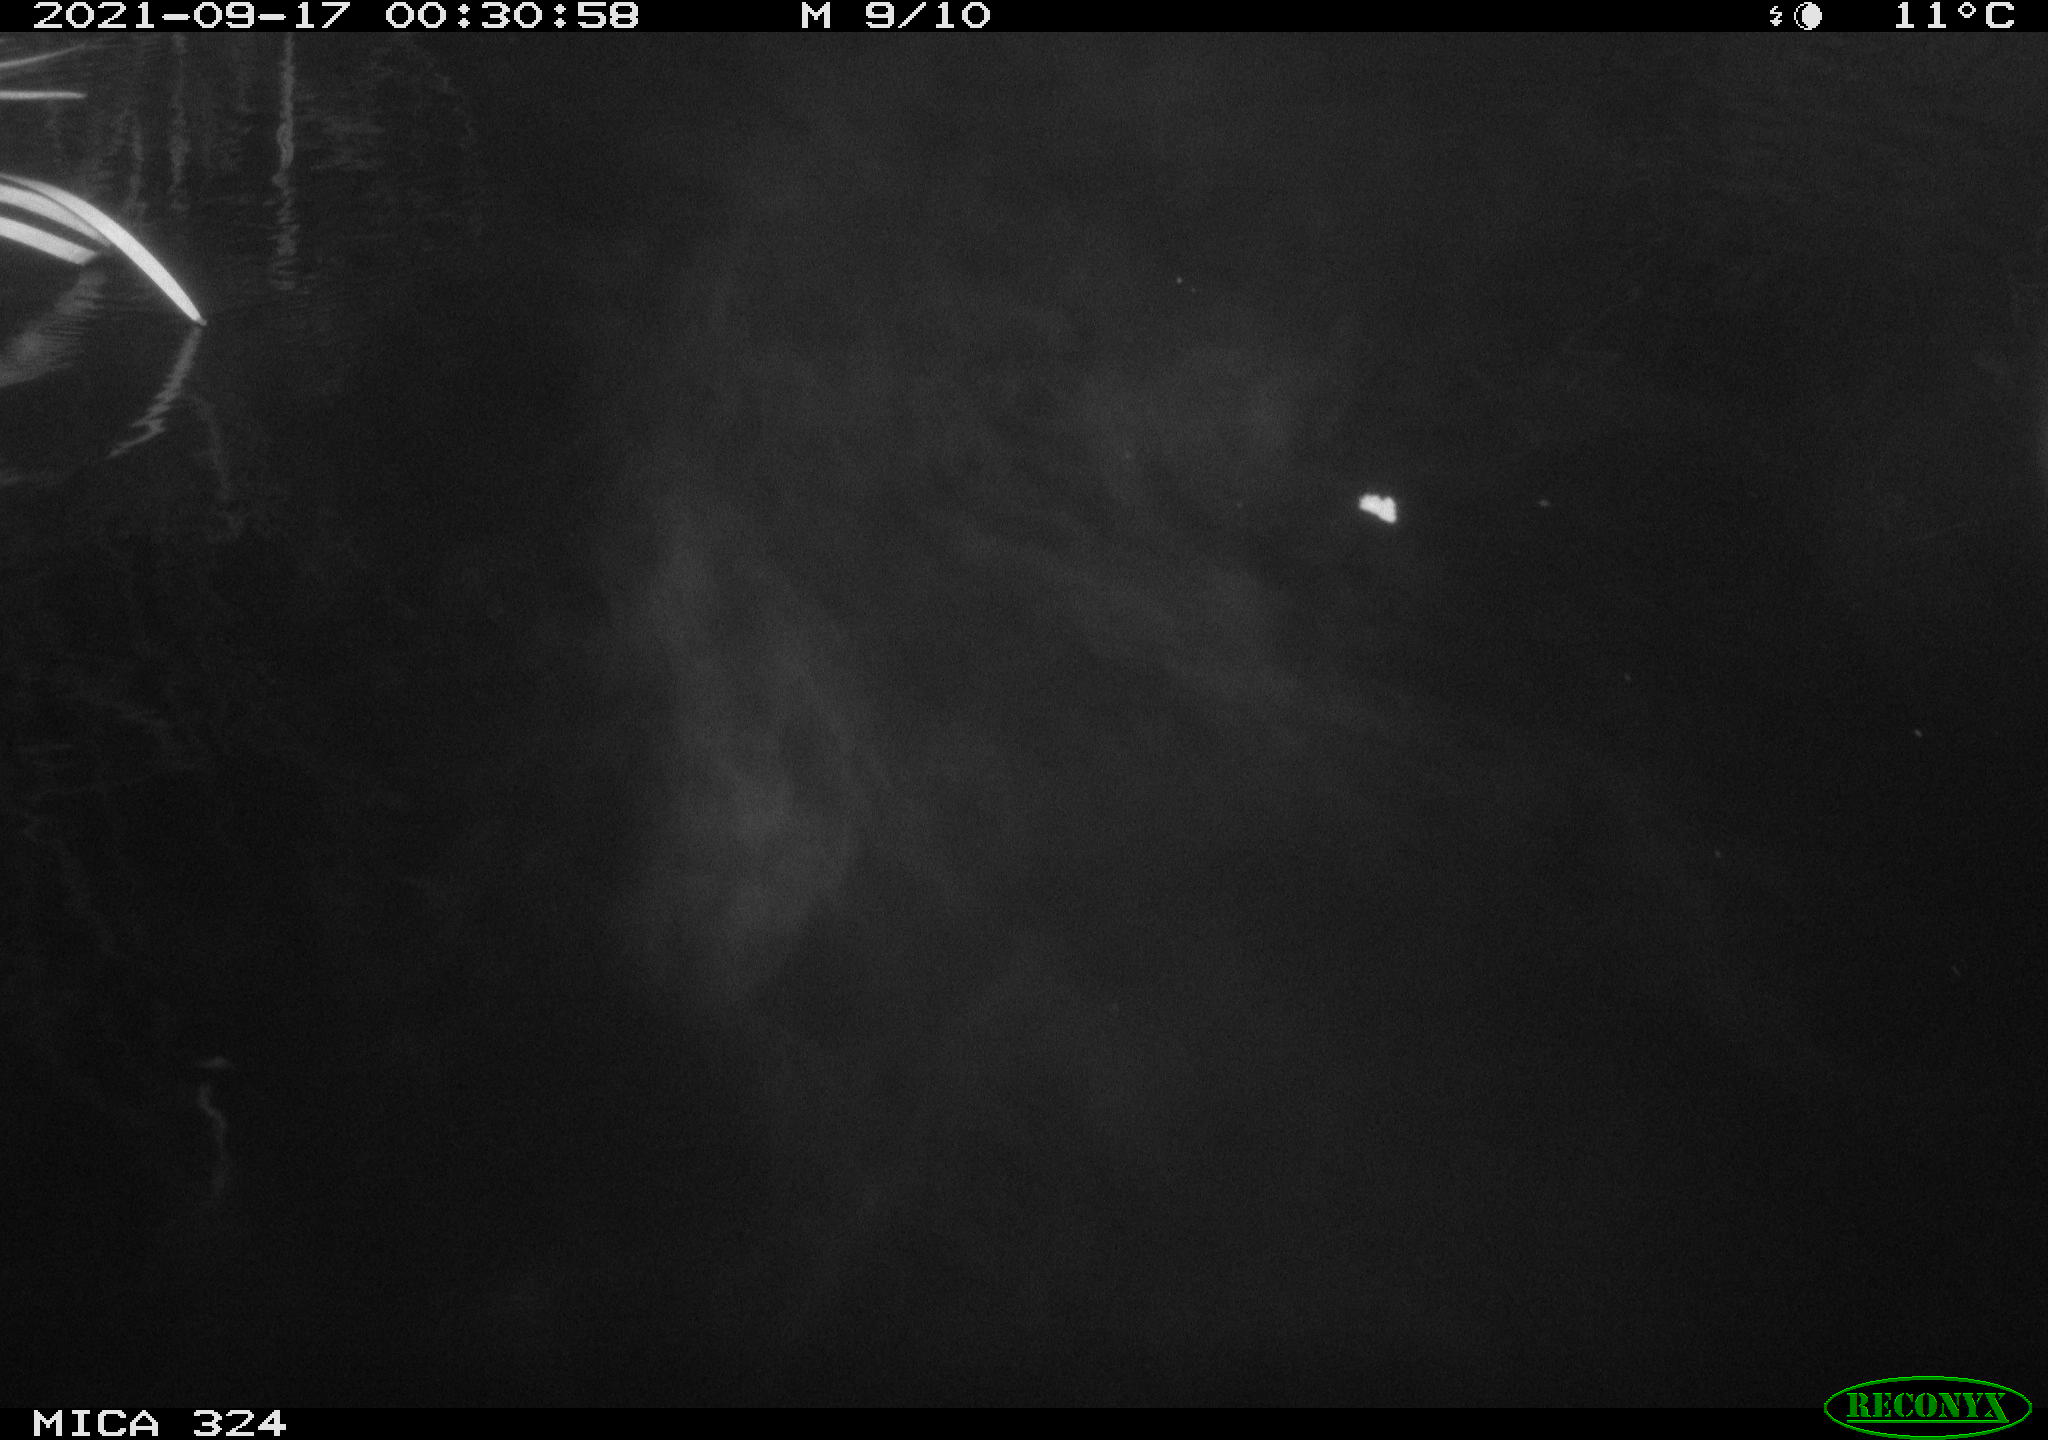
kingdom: Animalia
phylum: Chordata
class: Mammalia
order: Rodentia
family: Cricetidae
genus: Ondatra
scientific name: Ondatra zibethicus
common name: Muskrat
